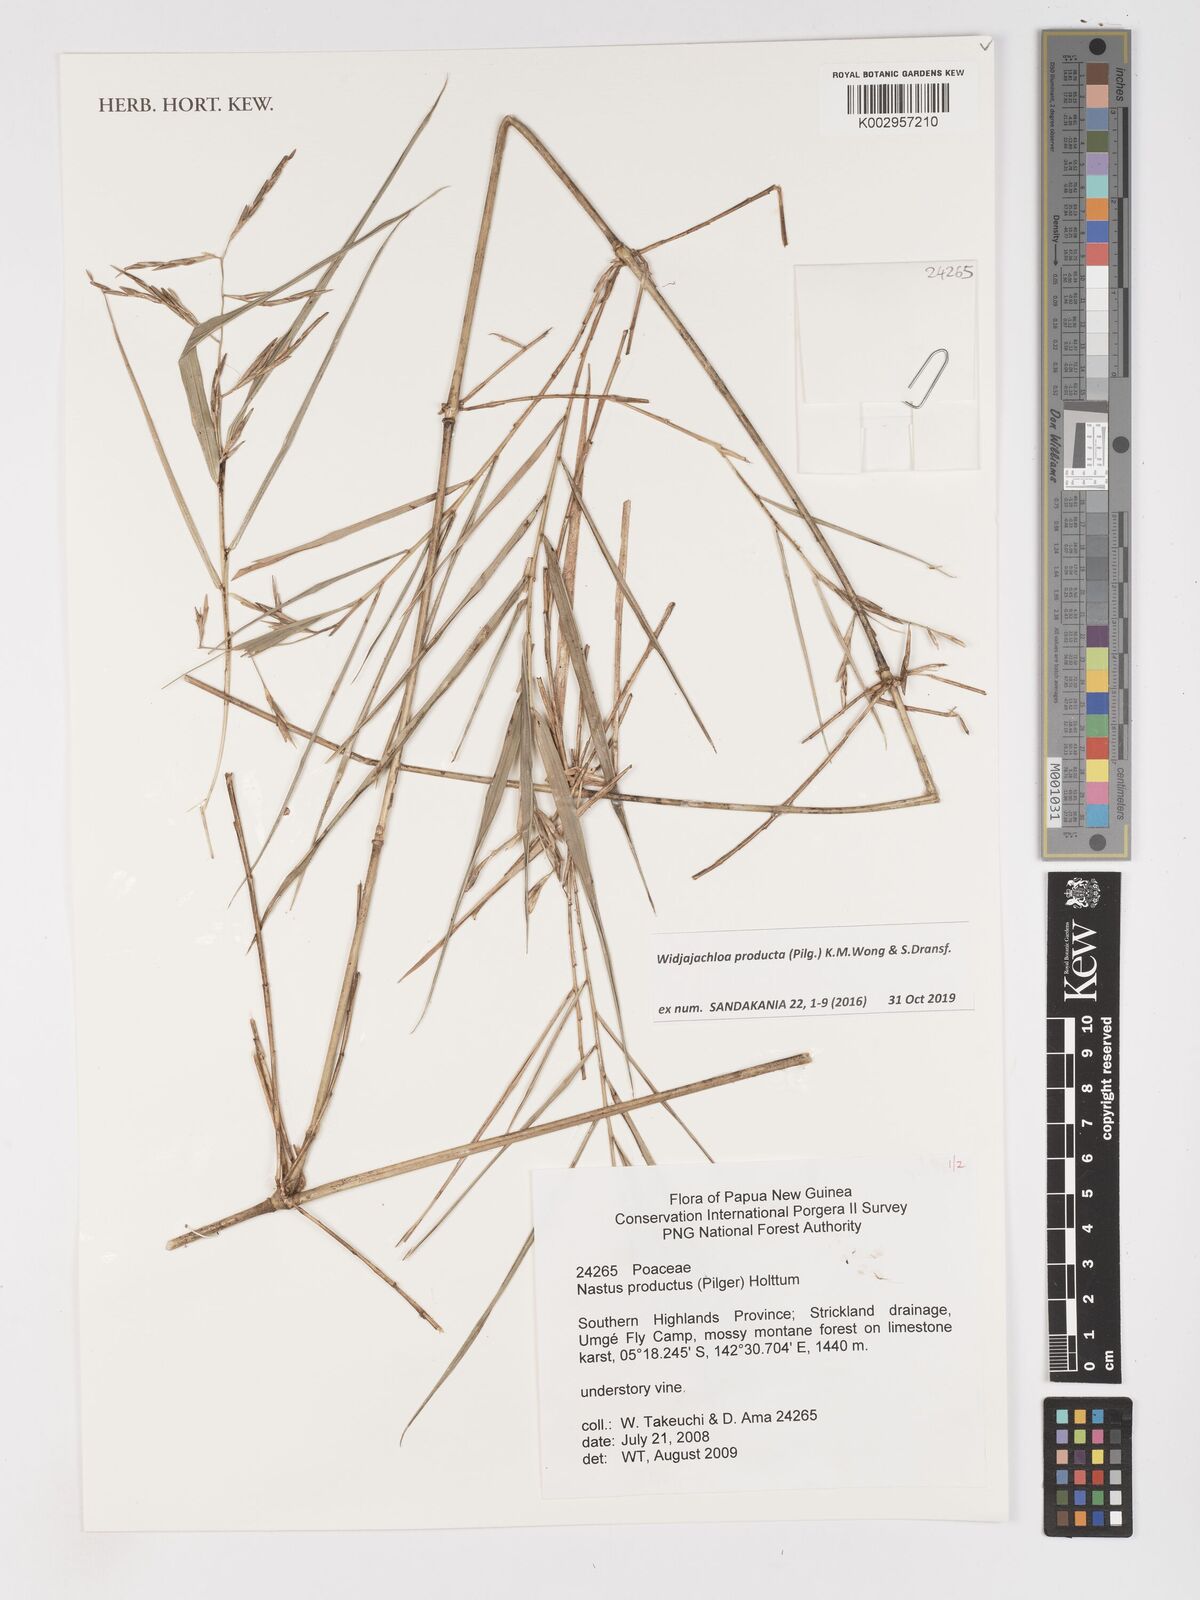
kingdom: Plantae
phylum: Tracheophyta
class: Liliopsida
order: Poales
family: Poaceae
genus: Widjajachloa
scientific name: Widjajachloa producta
